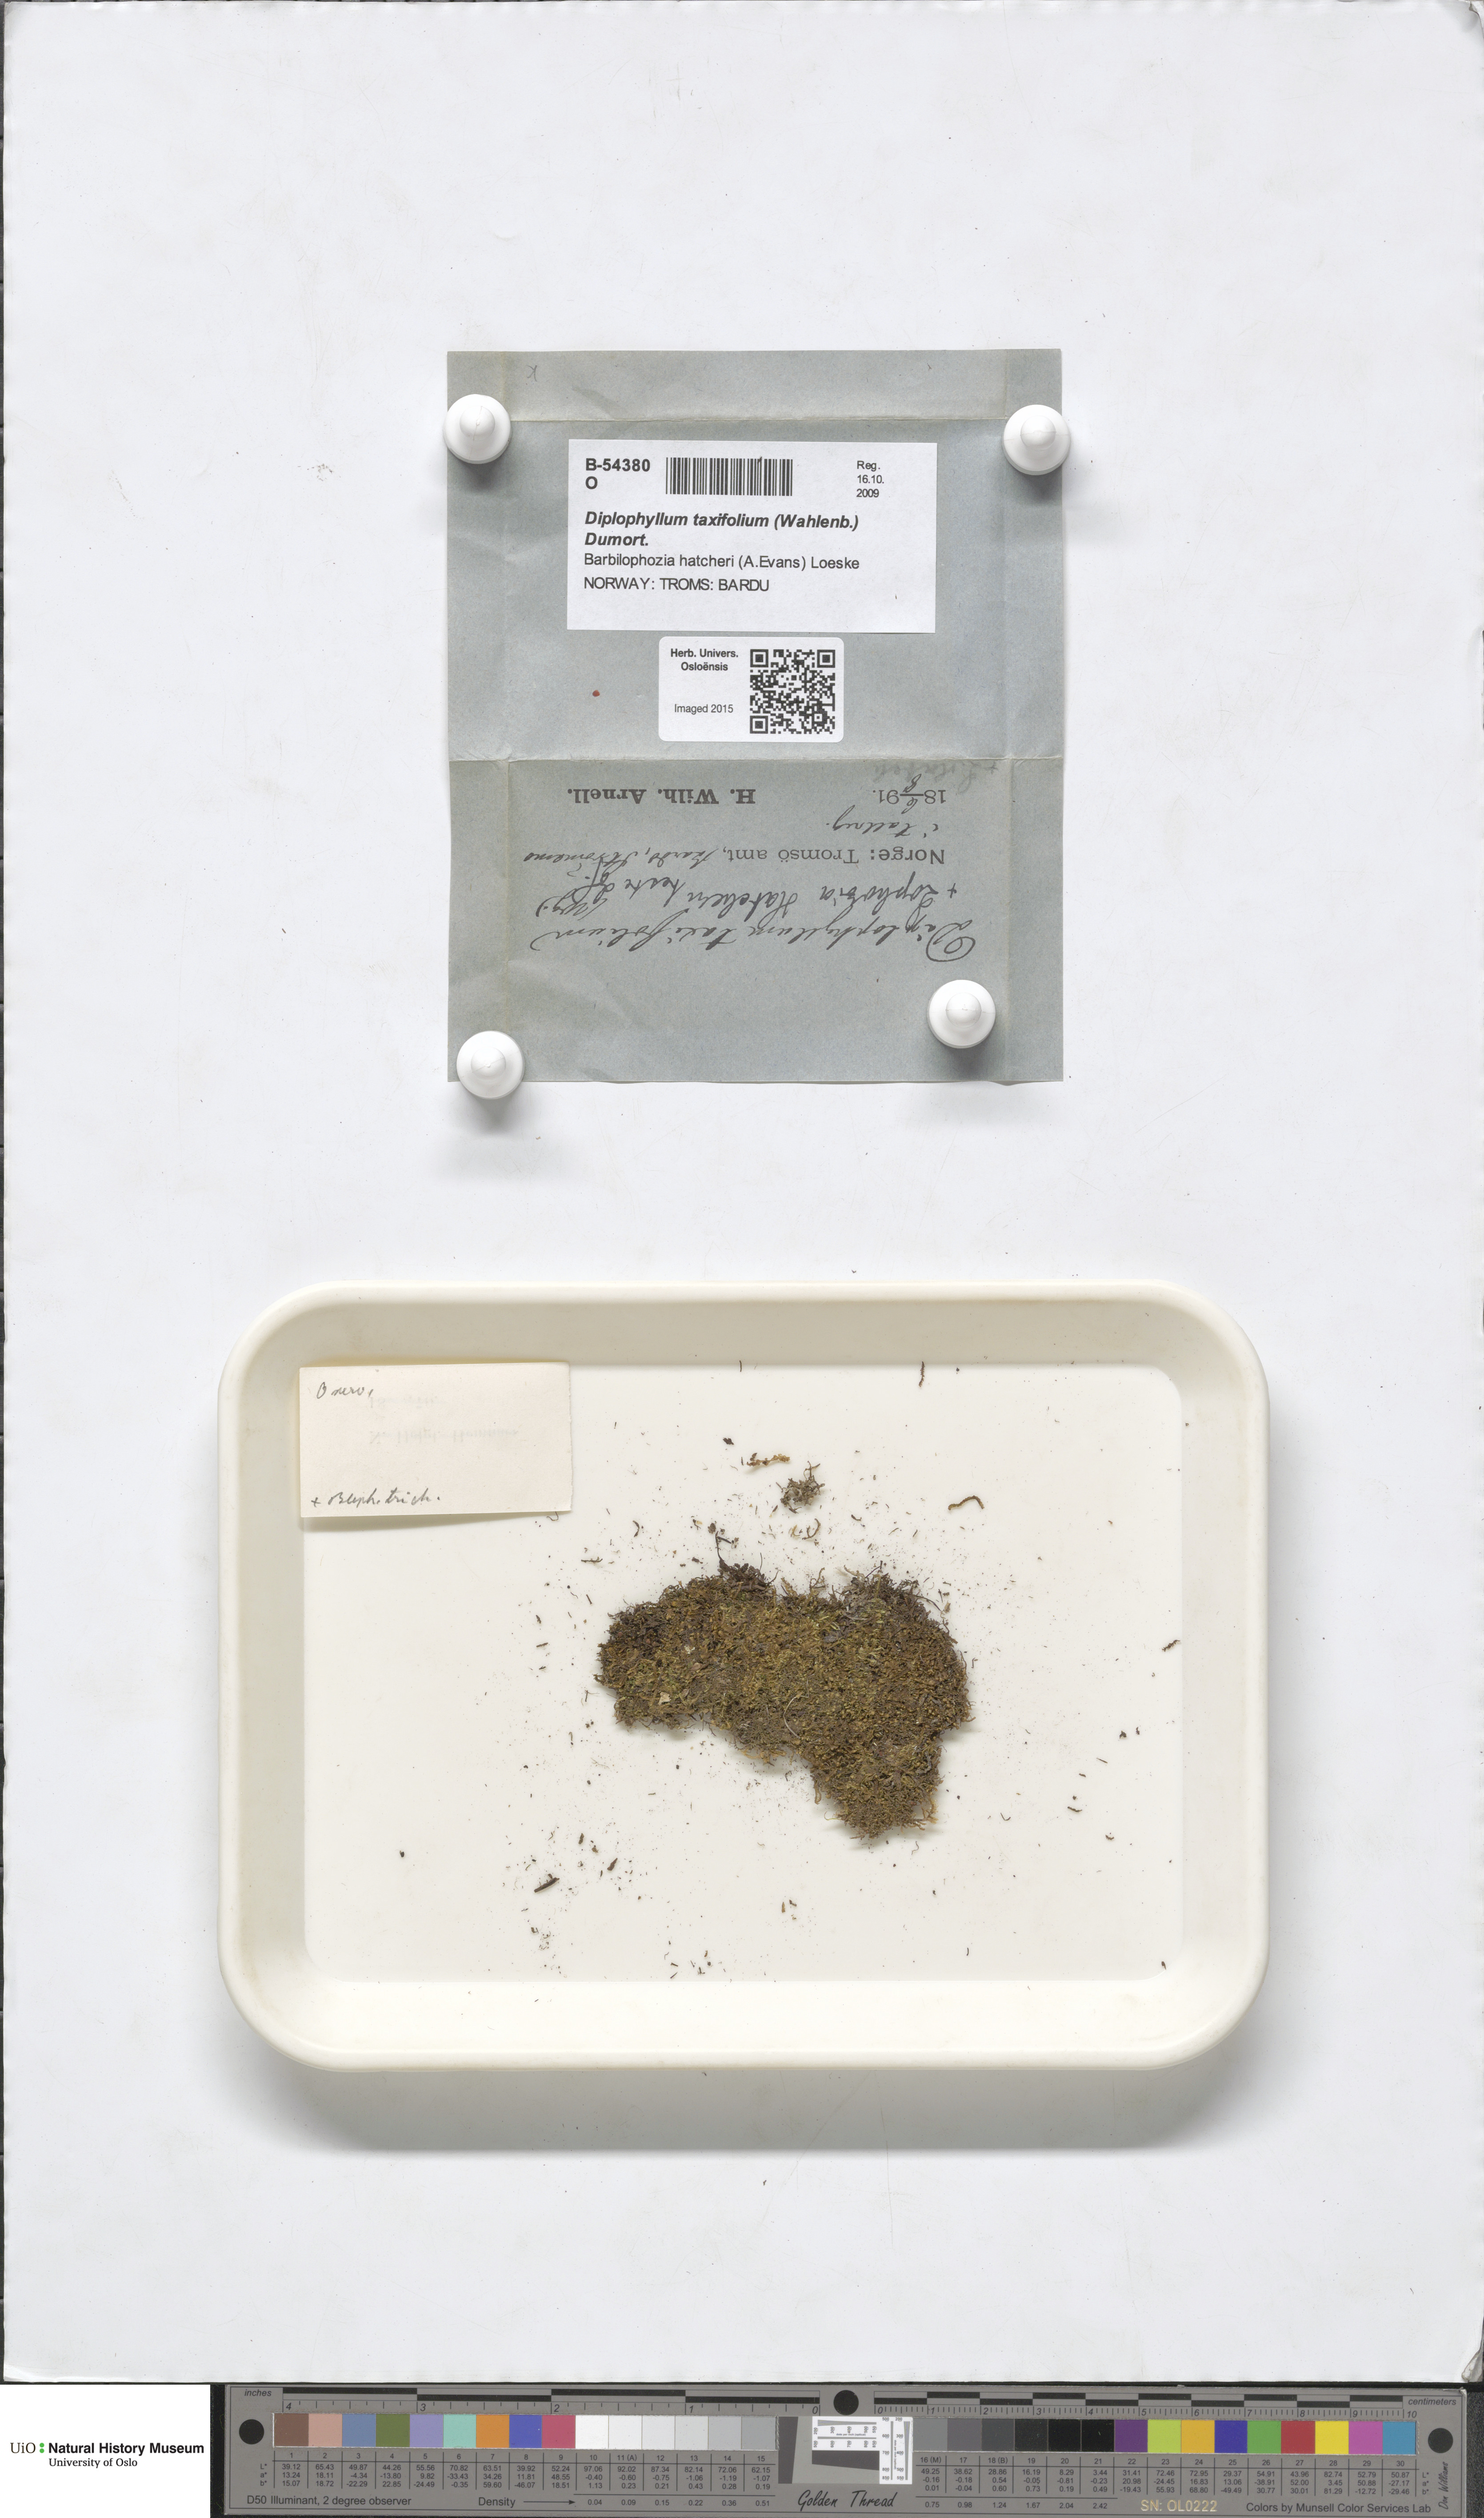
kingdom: Plantae
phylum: Marchantiophyta
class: Jungermanniopsida
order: Jungermanniales
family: Scapaniaceae
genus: Diplophyllum
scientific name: Diplophyllum taxifolium
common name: Alpine earwort
